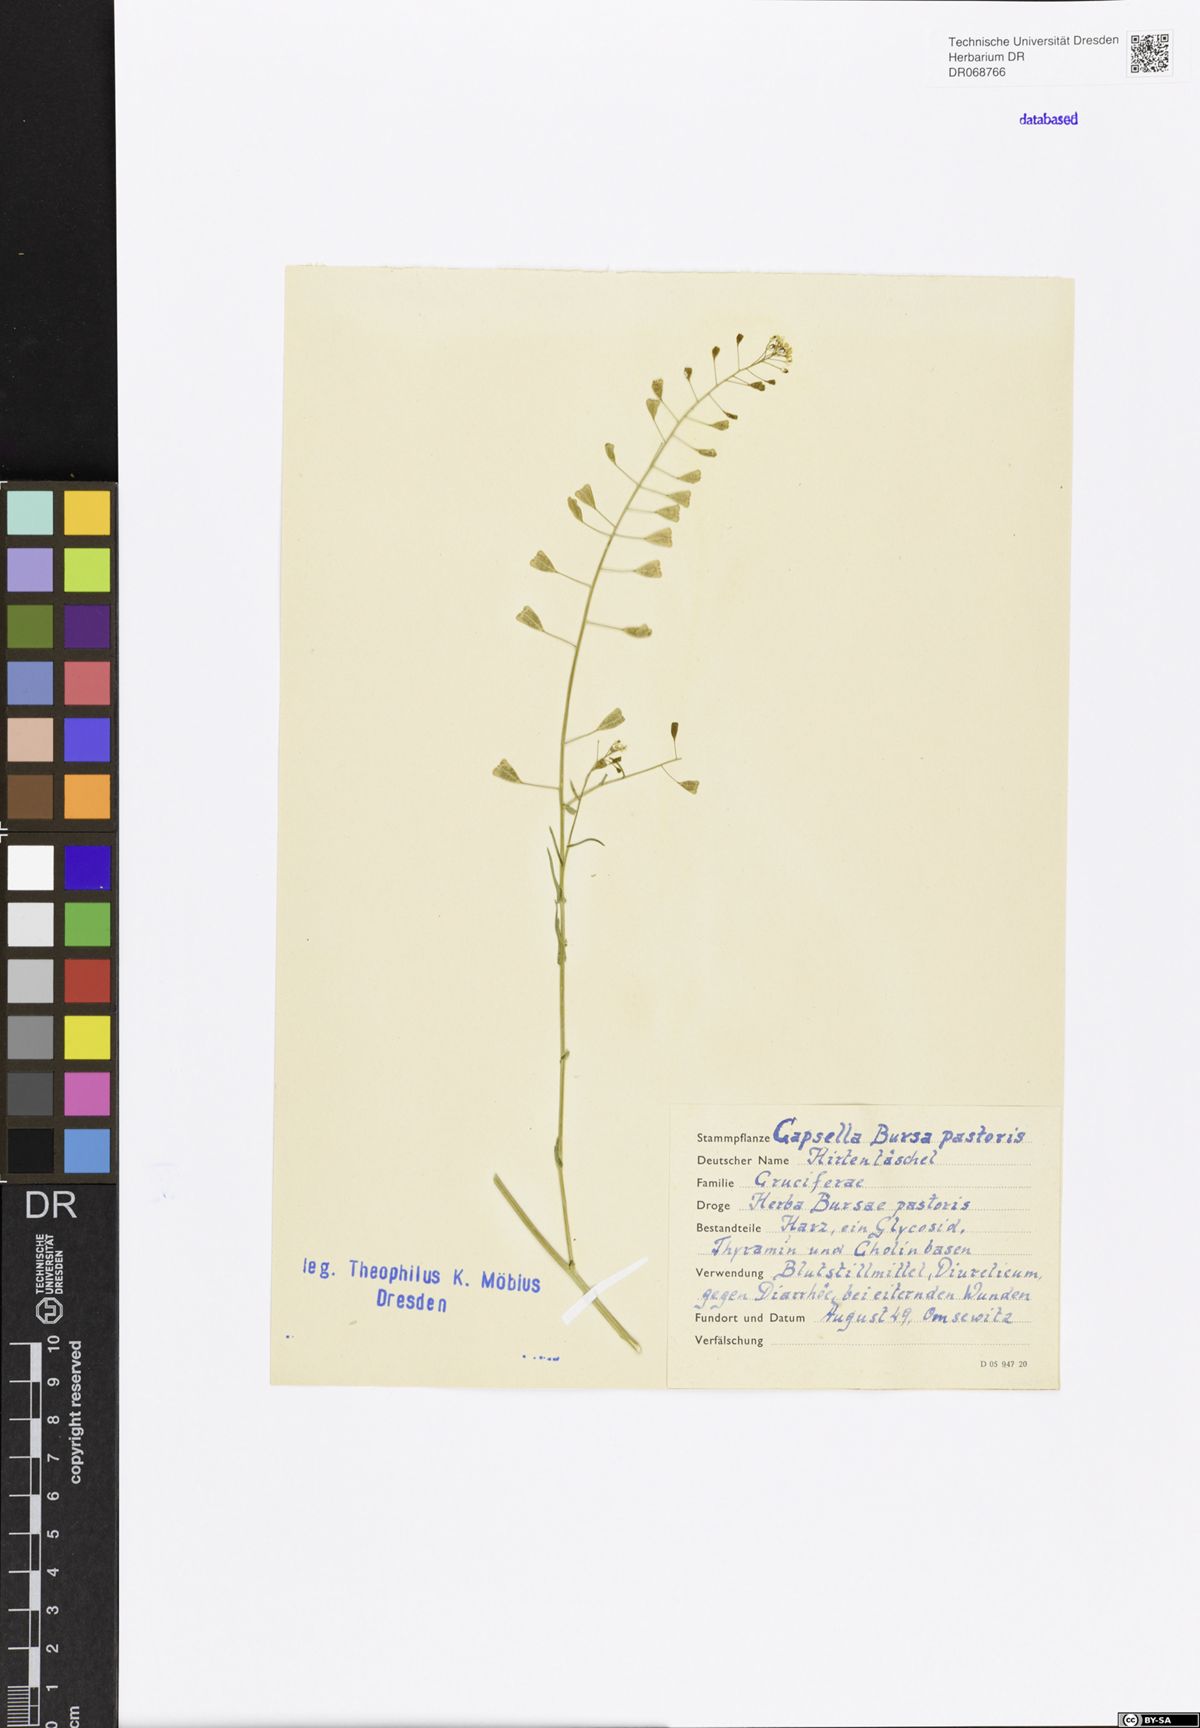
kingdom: Plantae
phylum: Tracheophyta
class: Magnoliopsida
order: Brassicales
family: Brassicaceae
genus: Capsella
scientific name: Capsella bursa-pastoris
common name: Shepherd's purse
